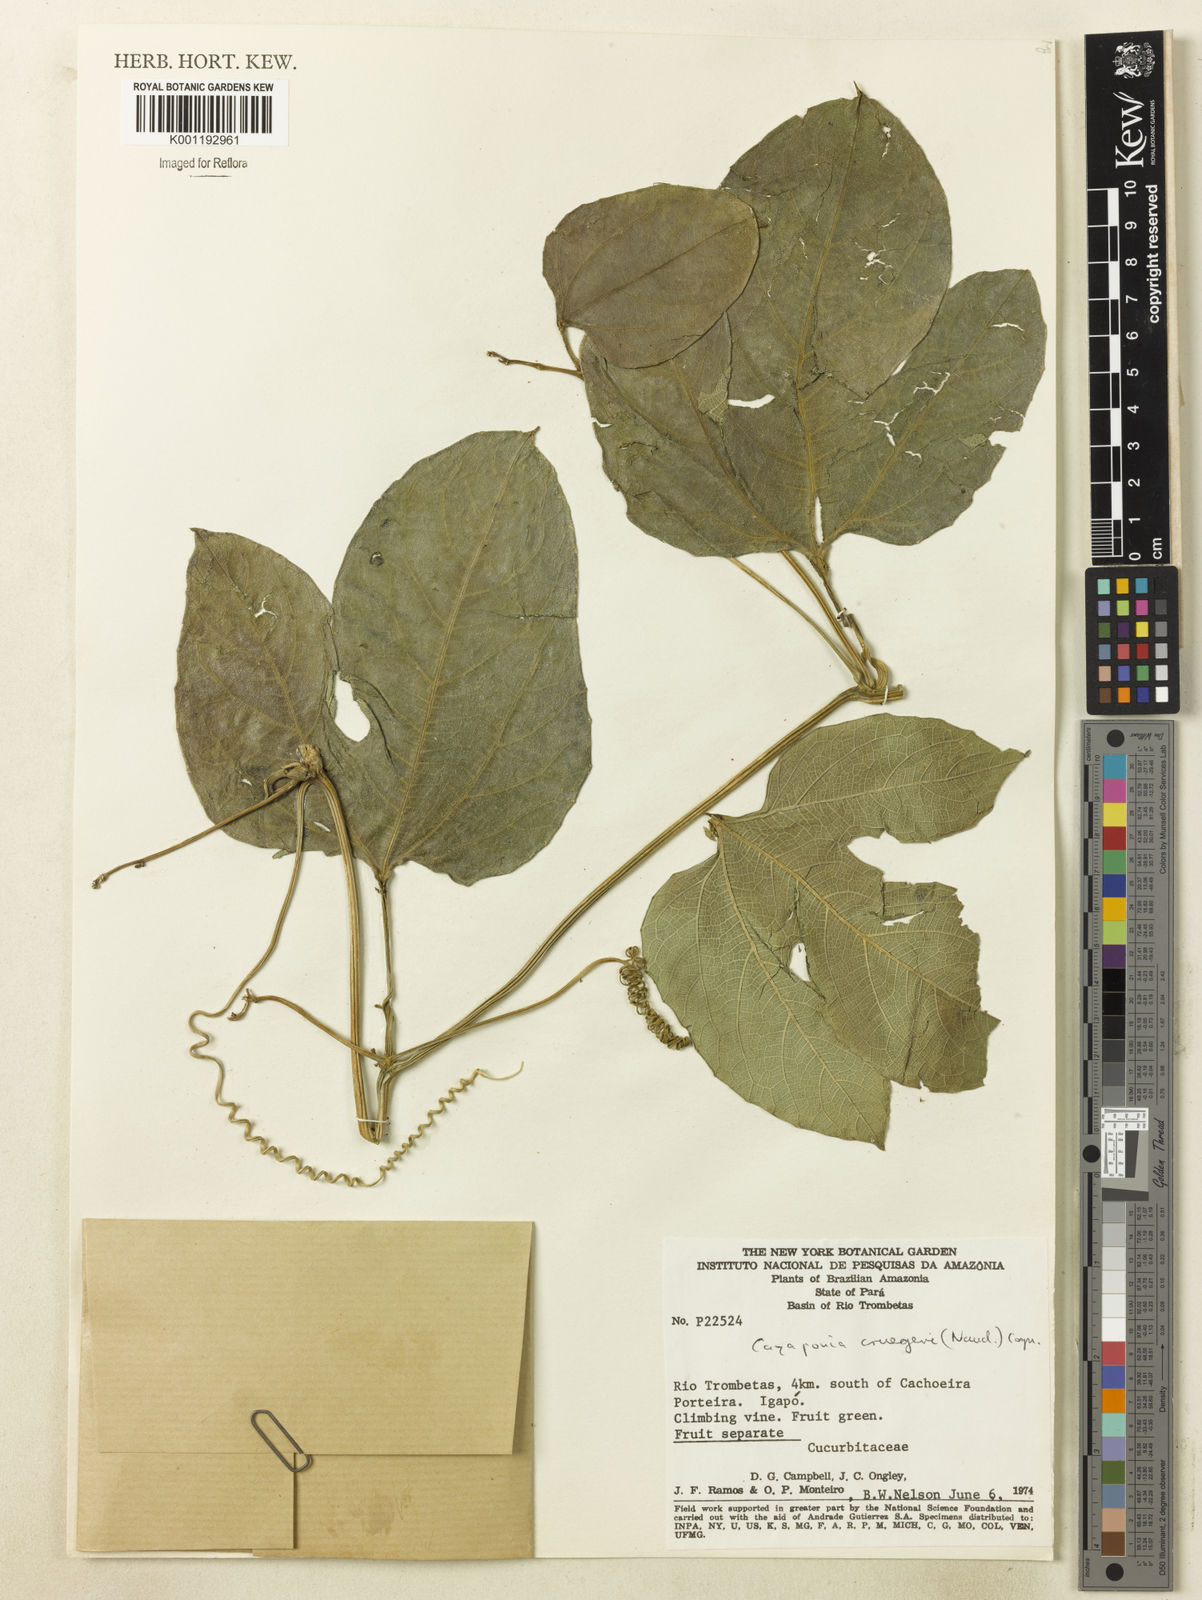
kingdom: Plantae
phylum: Tracheophyta
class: Magnoliopsida
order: Cucurbitales
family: Cucurbitaceae
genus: Cayaponia
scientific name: Cayaponia cruegeri
